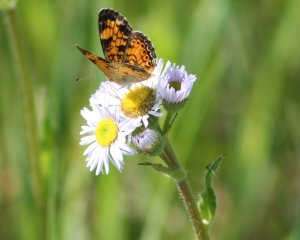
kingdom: Animalia
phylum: Arthropoda
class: Insecta
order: Lepidoptera
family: Nymphalidae
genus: Phyciodes
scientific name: Phyciodes tharos
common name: Pearl Crescent
